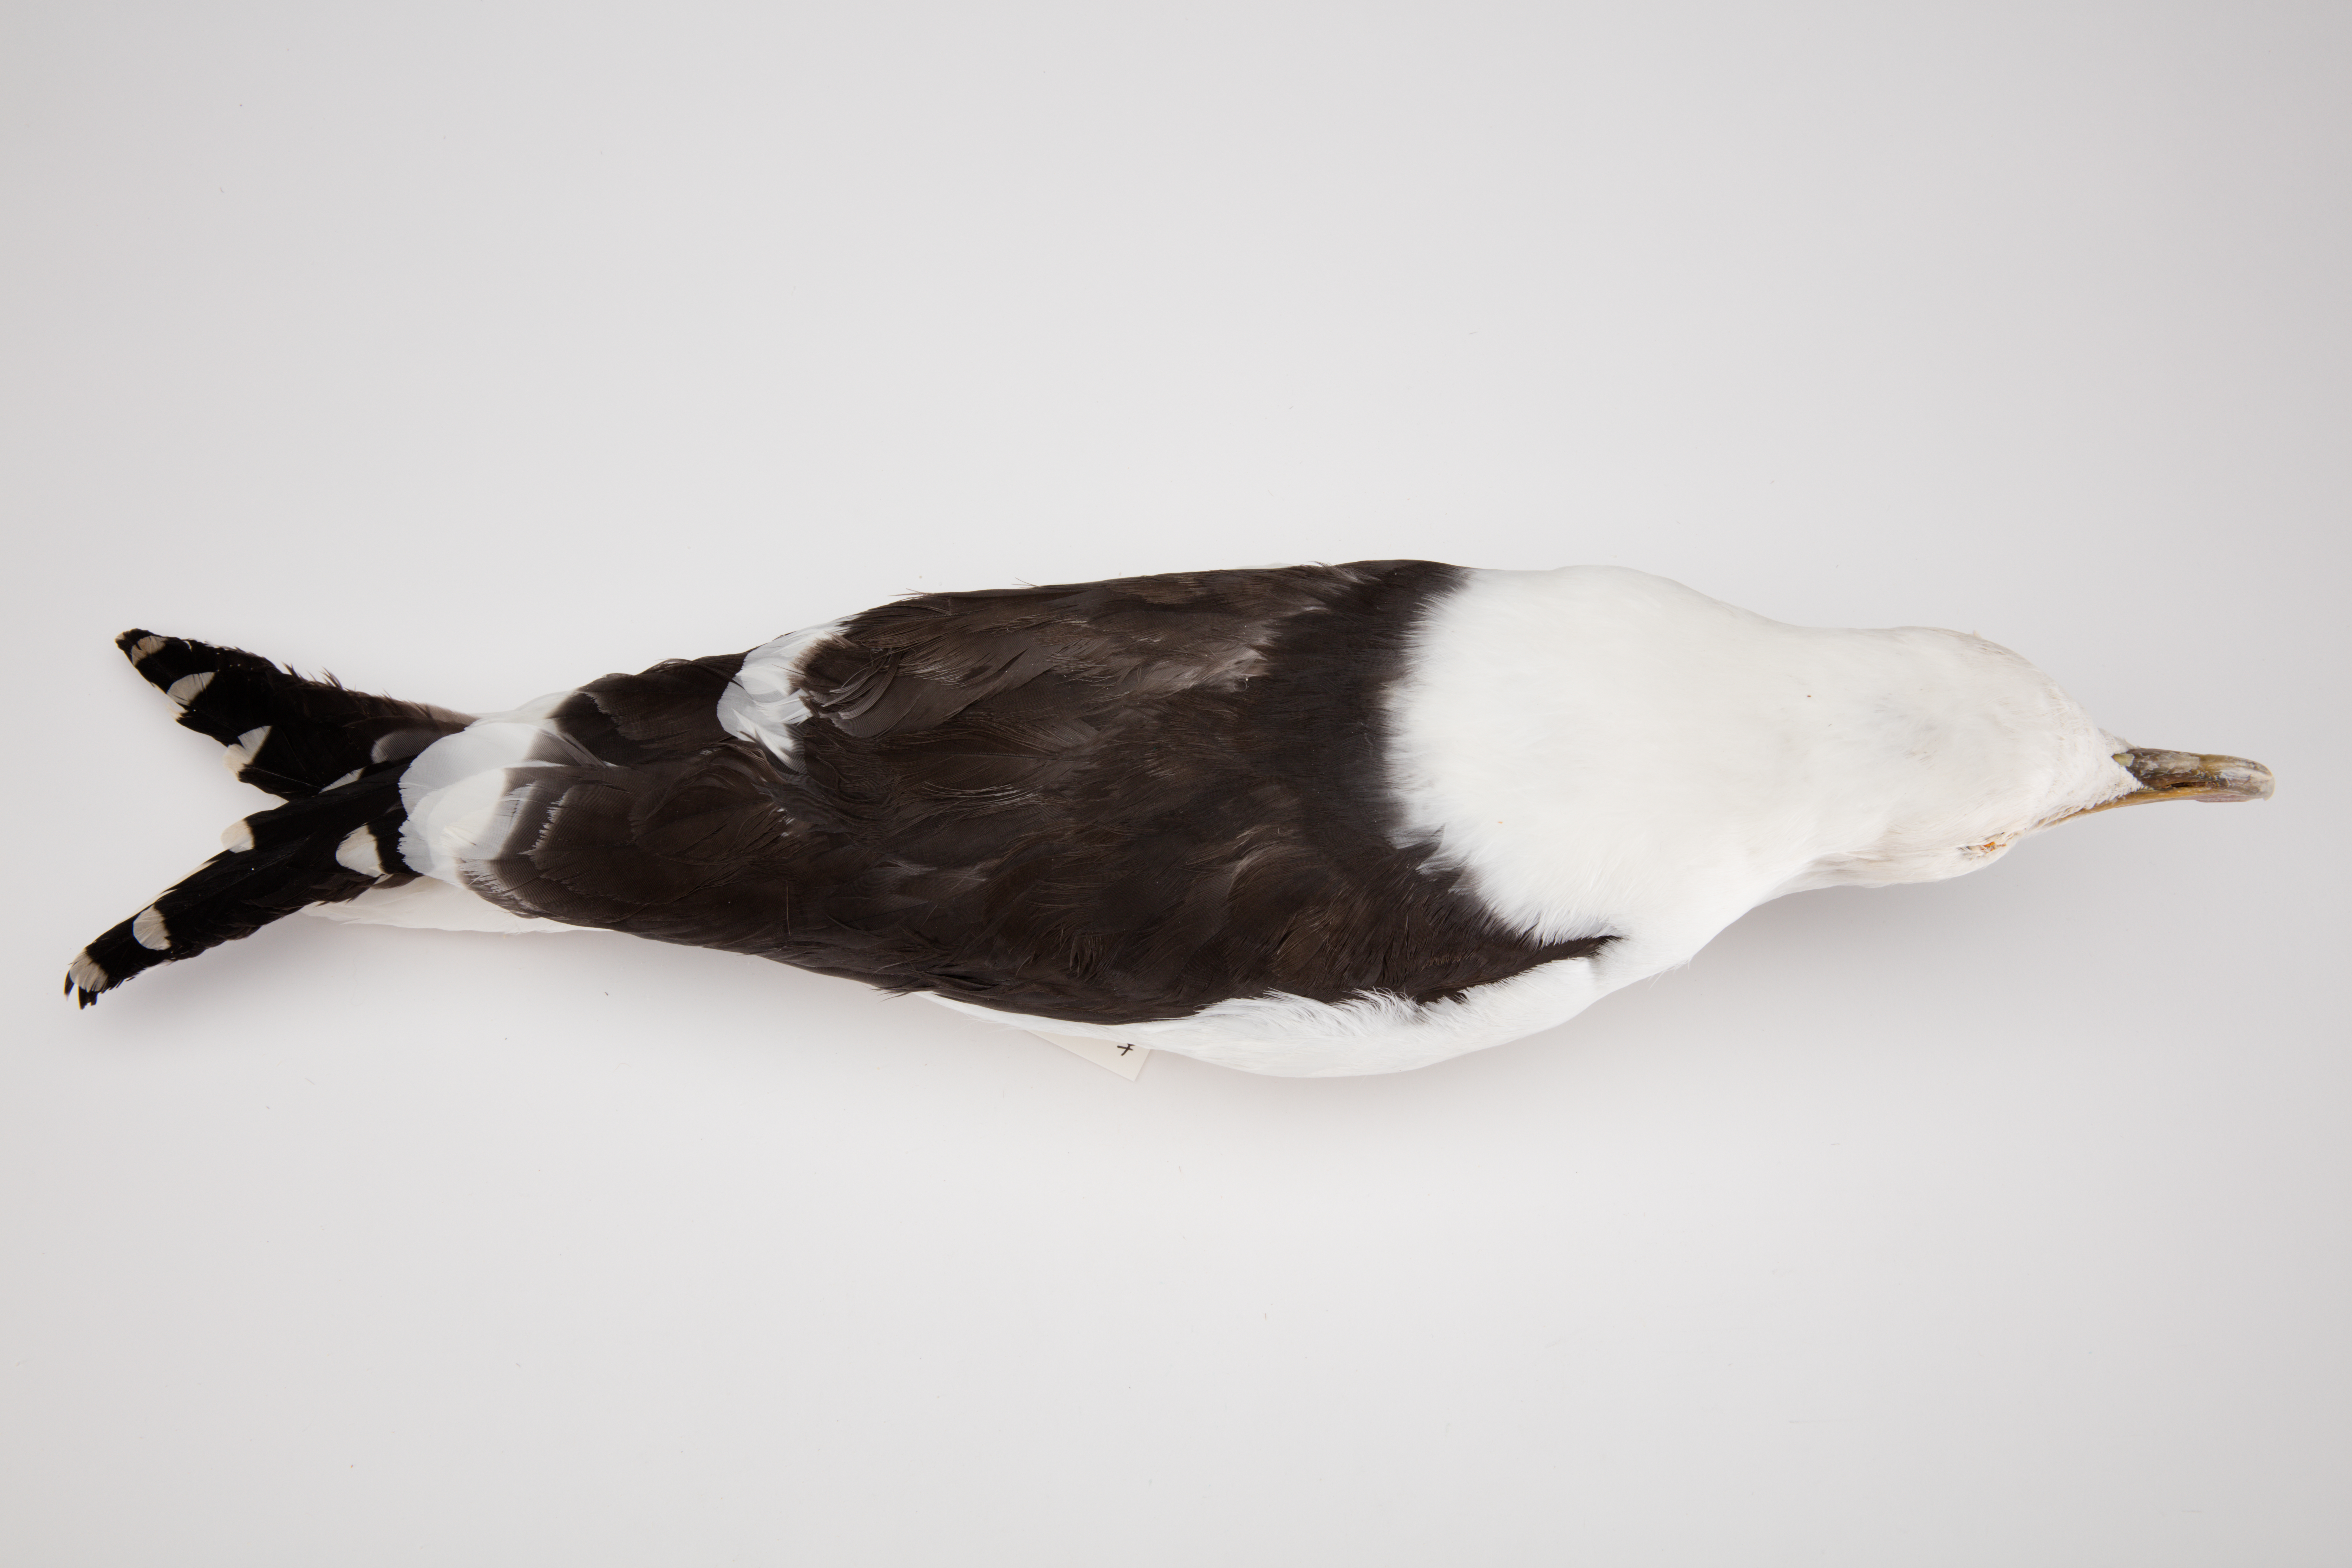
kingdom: Animalia
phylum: Chordata
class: Aves
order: Charadriiformes
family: Laridae
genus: Larus
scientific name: Larus dominicanus
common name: Kelp gull
